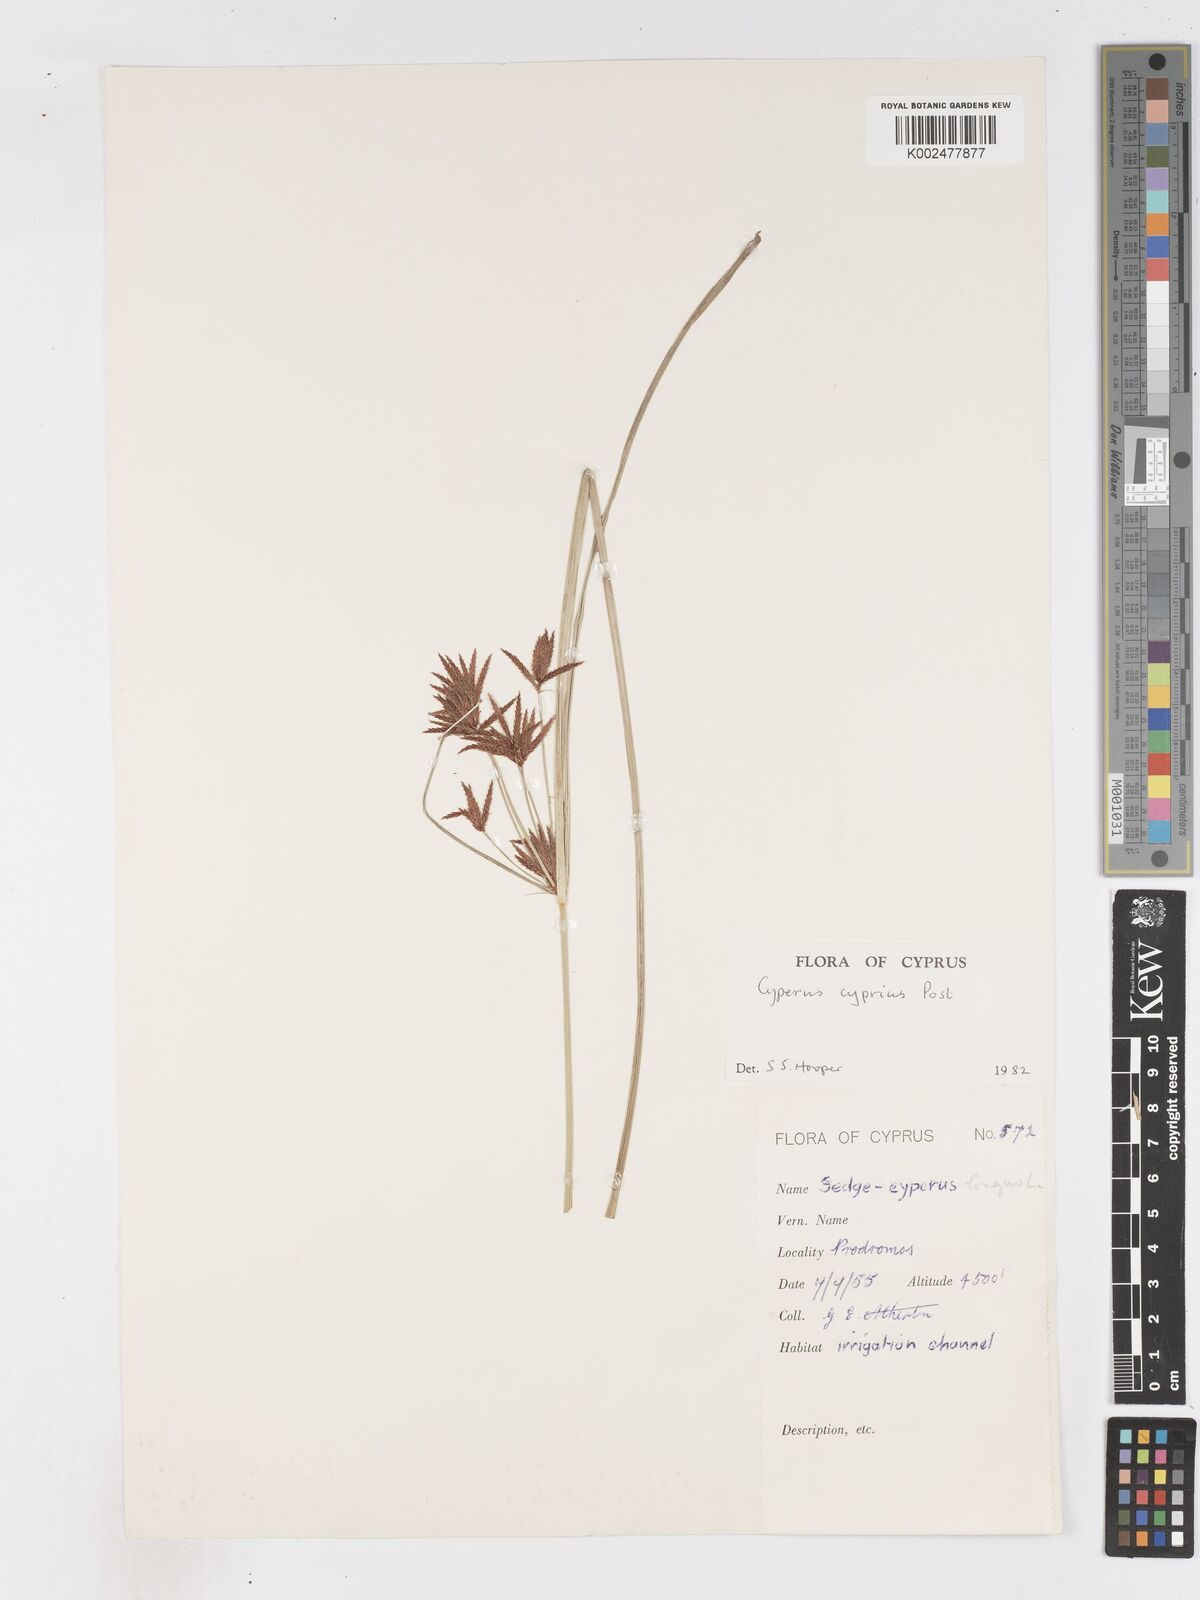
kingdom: Plantae
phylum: Tracheophyta
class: Liliopsida
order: Poales
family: Cyperaceae
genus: Cyperus
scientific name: Cyperus longus
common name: Galingale
